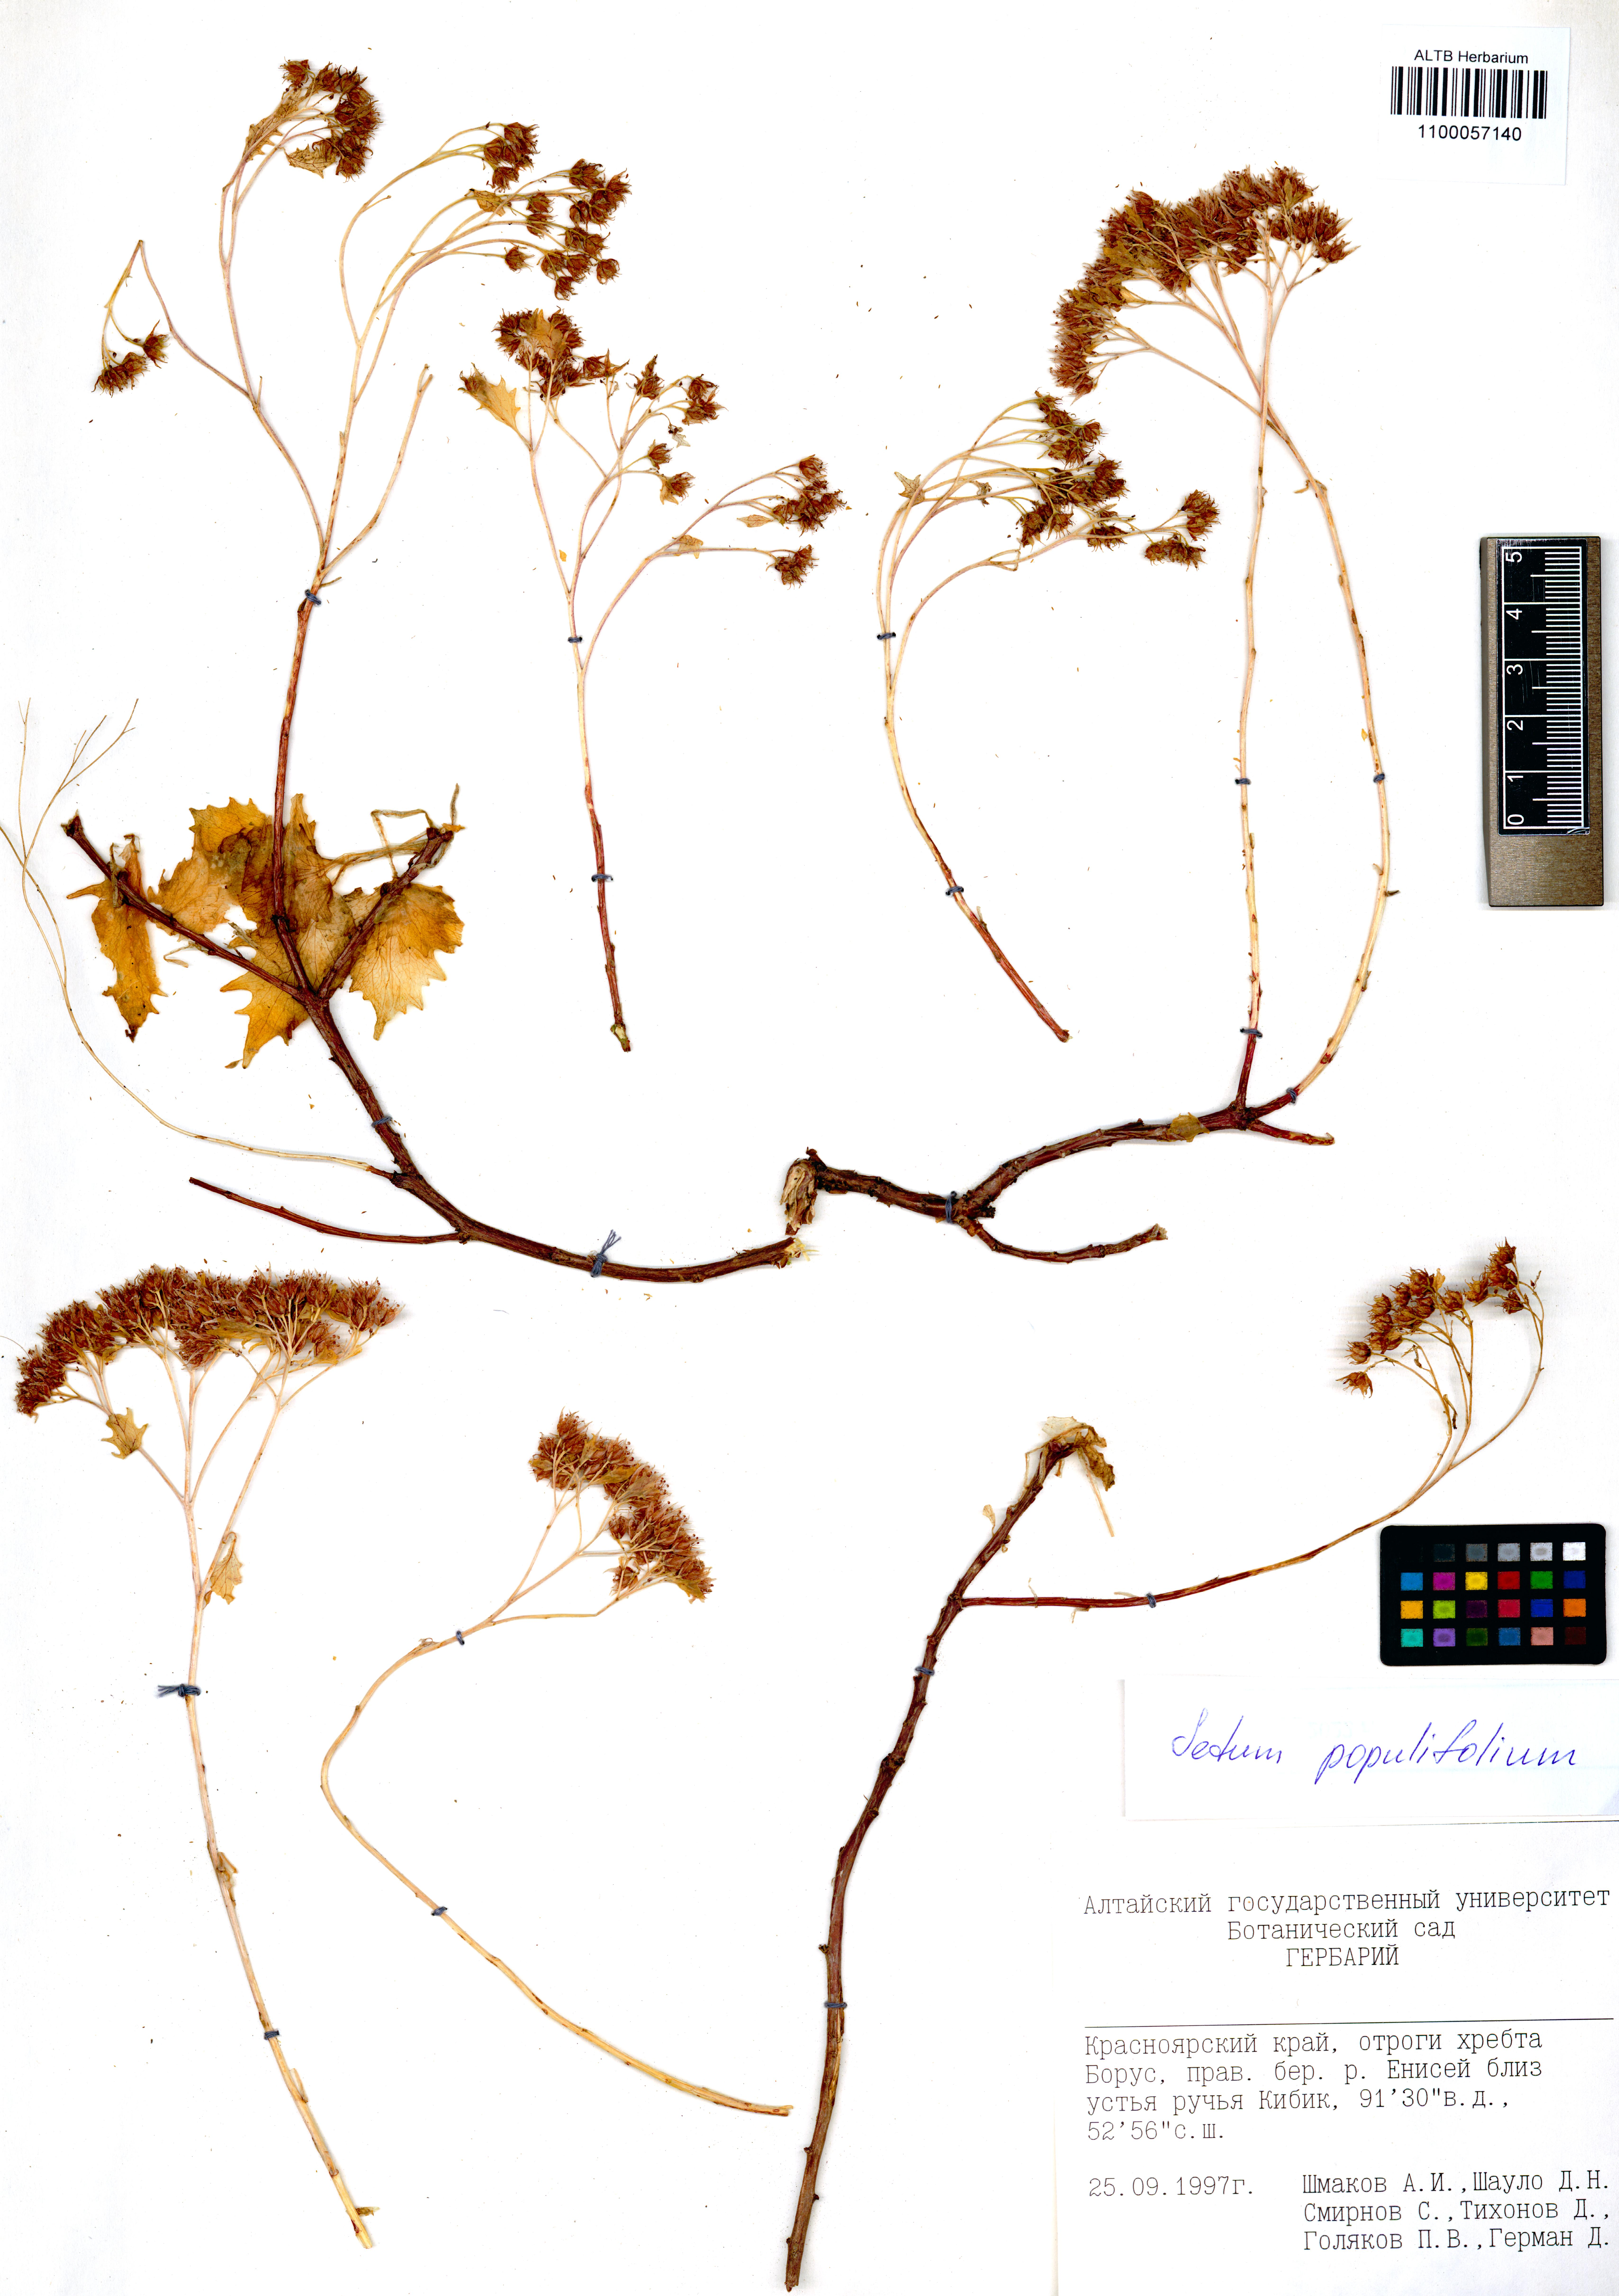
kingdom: Plantae
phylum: Tracheophyta
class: Magnoliopsida
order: Saxifragales
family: Crassulaceae
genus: Hylotelephium
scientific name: Hylotelephium populifolium
